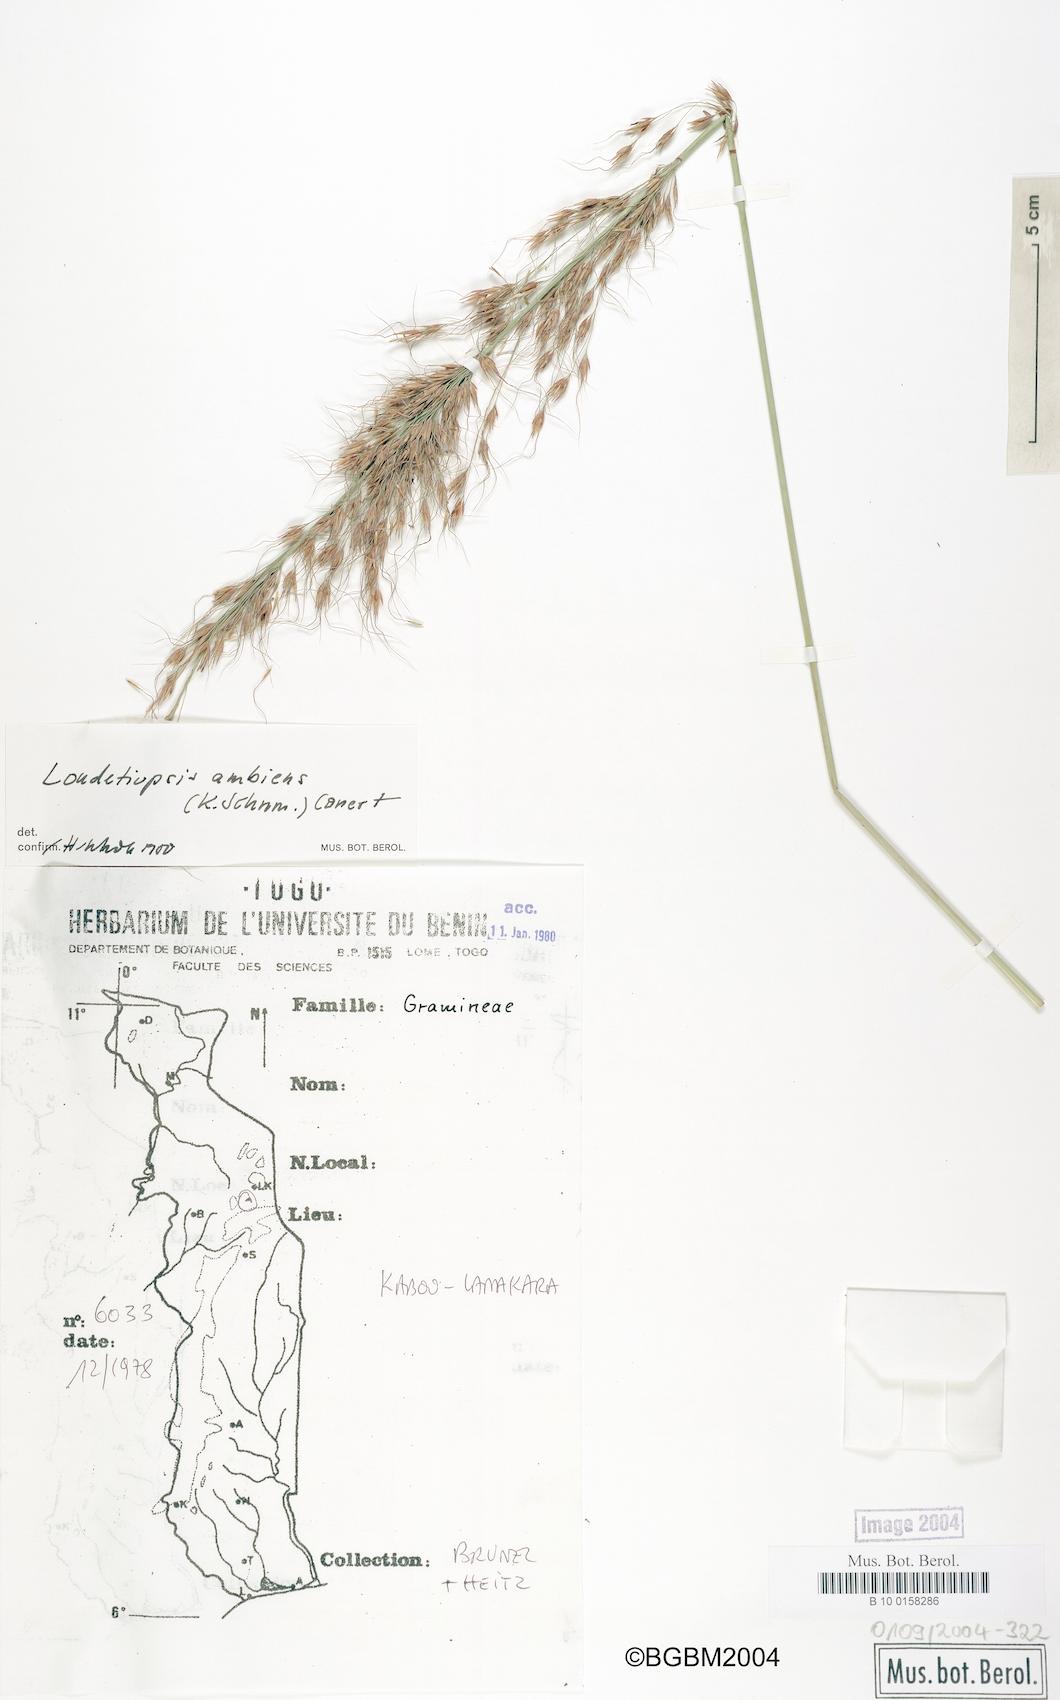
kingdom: Plantae
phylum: Tracheophyta
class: Liliopsida
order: Poales
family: Poaceae
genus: Loudetiopsis
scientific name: Loudetiopsis ambiens
